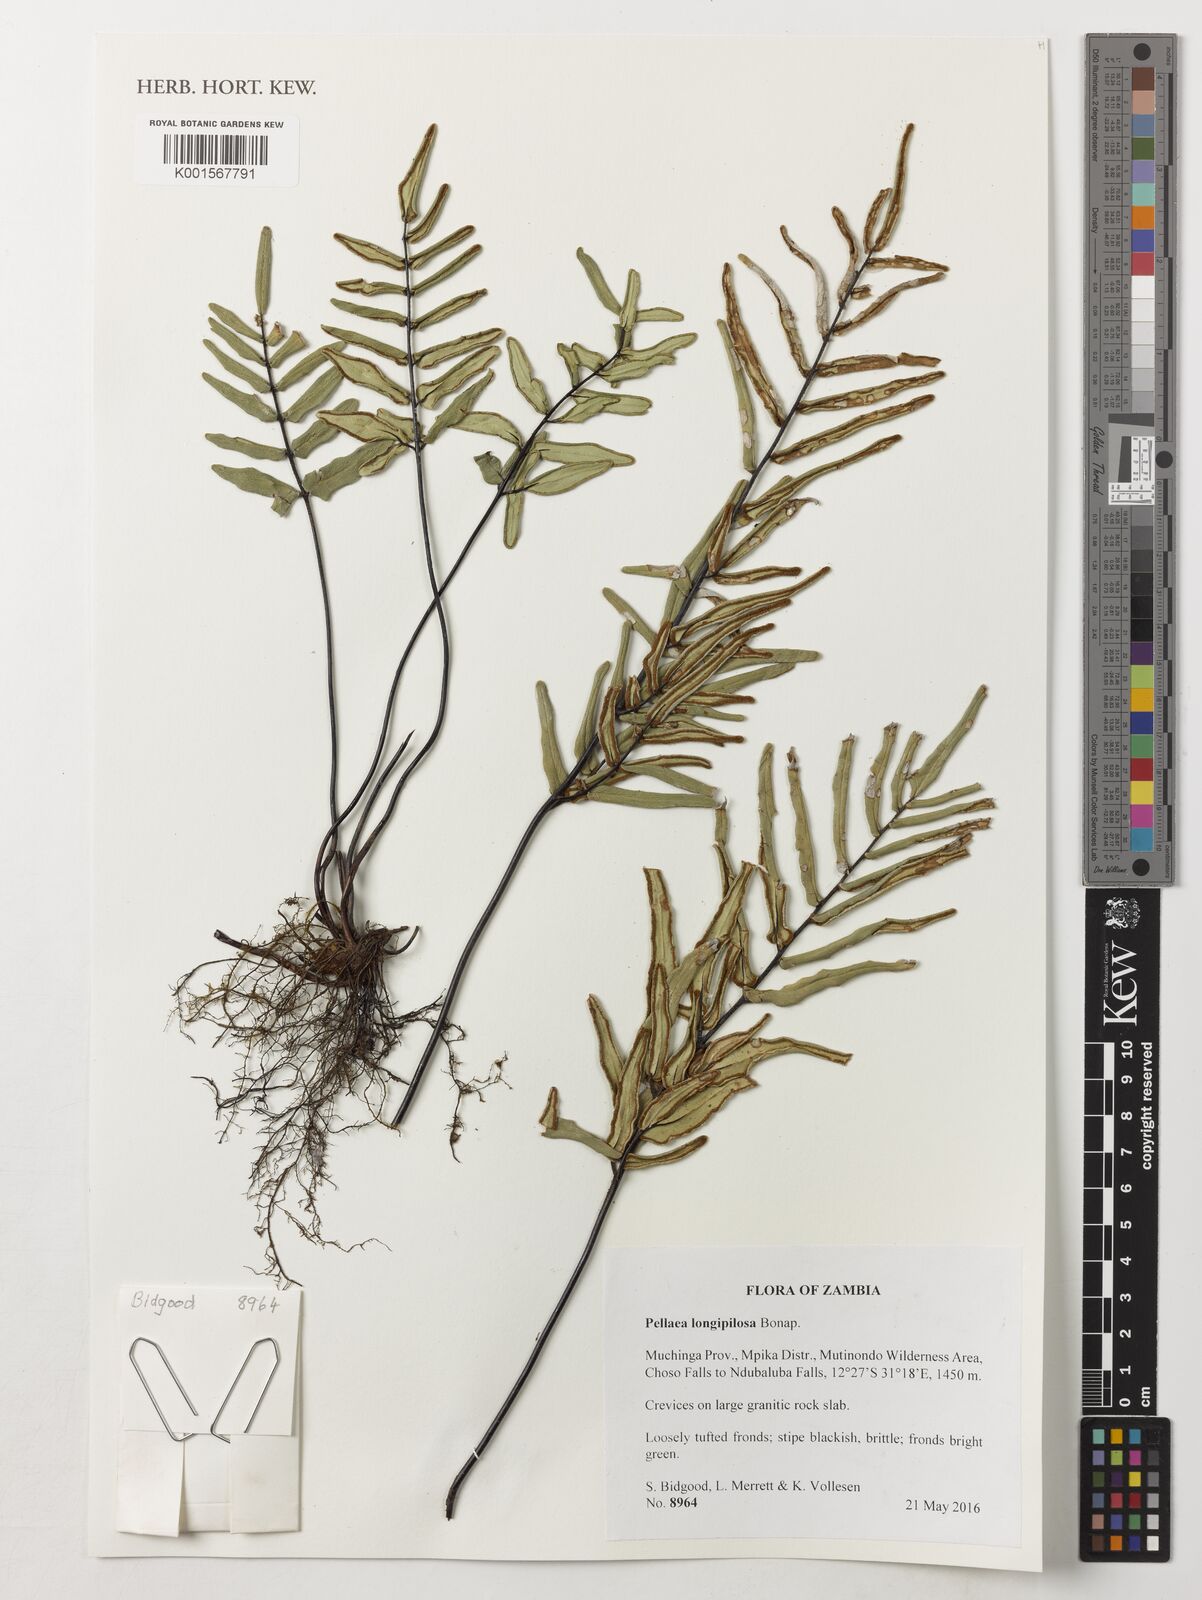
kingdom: Plantae
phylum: Tracheophyta
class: Polypodiopsida
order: Polypodiales
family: Pteridaceae
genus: Pellaea
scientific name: Pellaea longipilosa
